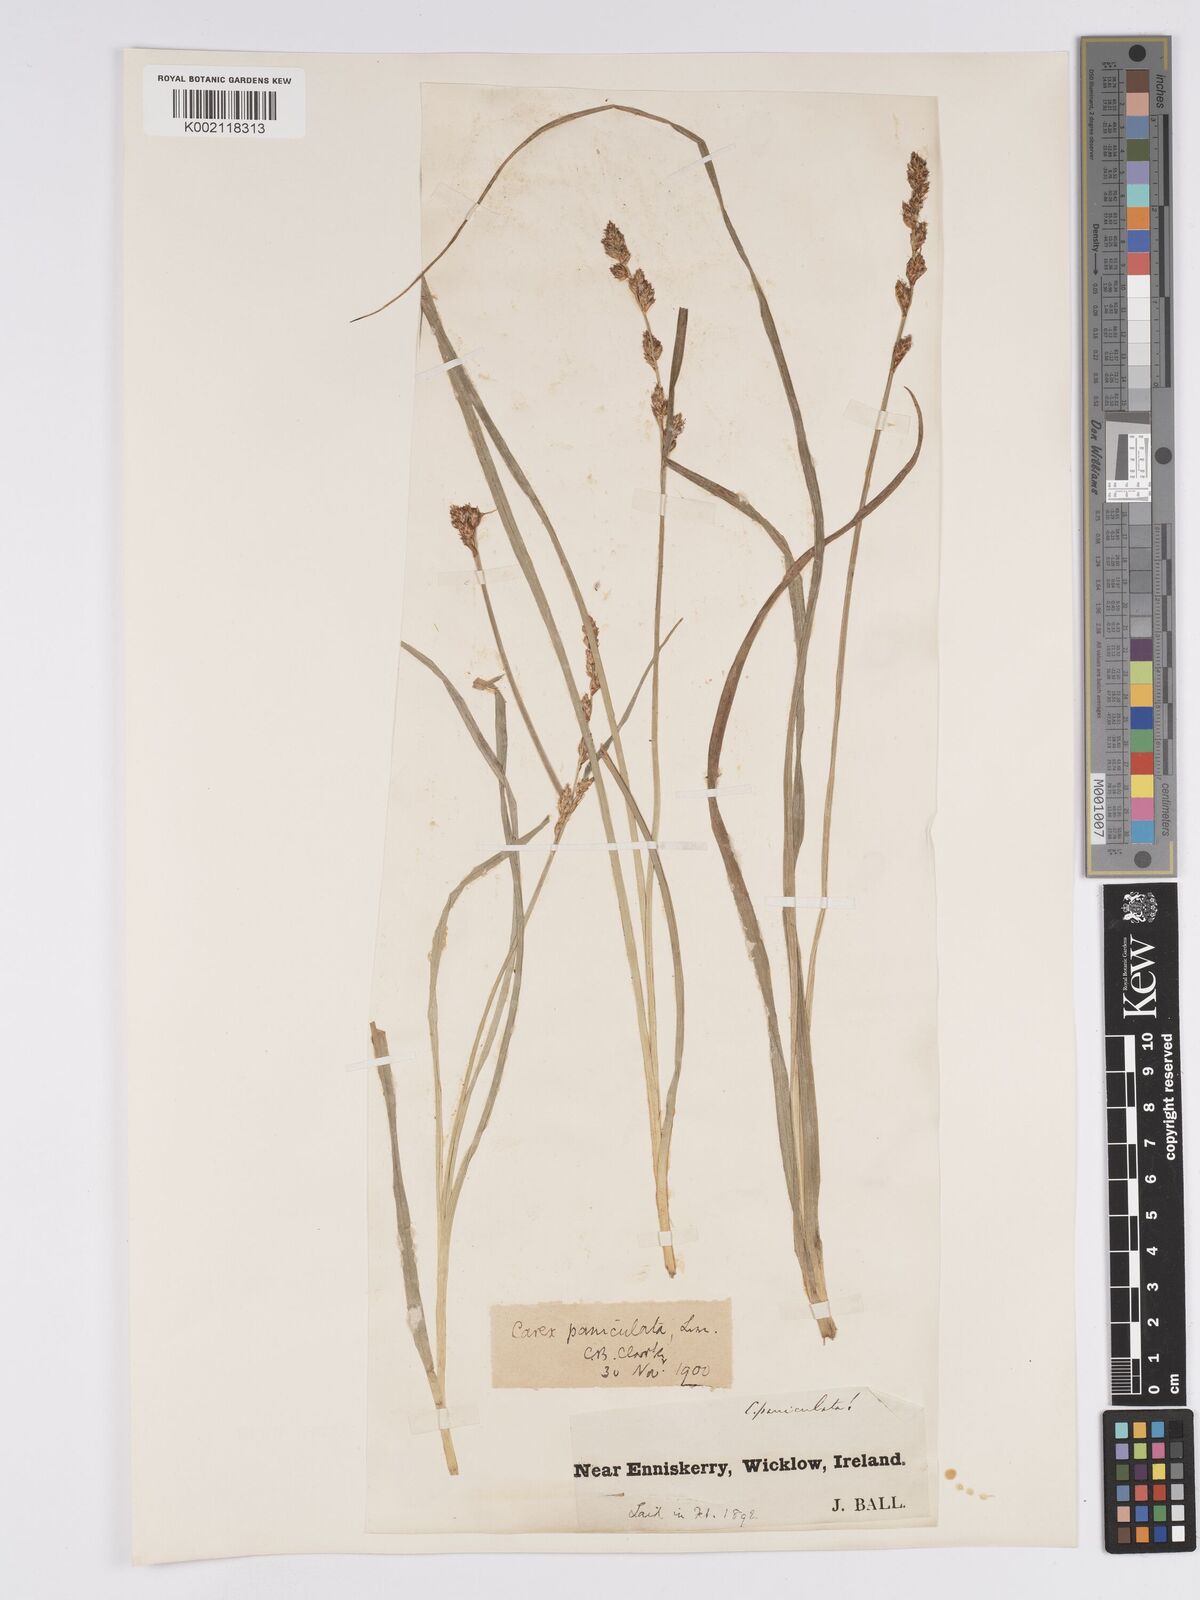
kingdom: Plantae
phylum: Tracheophyta
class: Liliopsida
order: Poales
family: Cyperaceae
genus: Carex
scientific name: Carex paniculata
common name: Greater tussock-sedge
